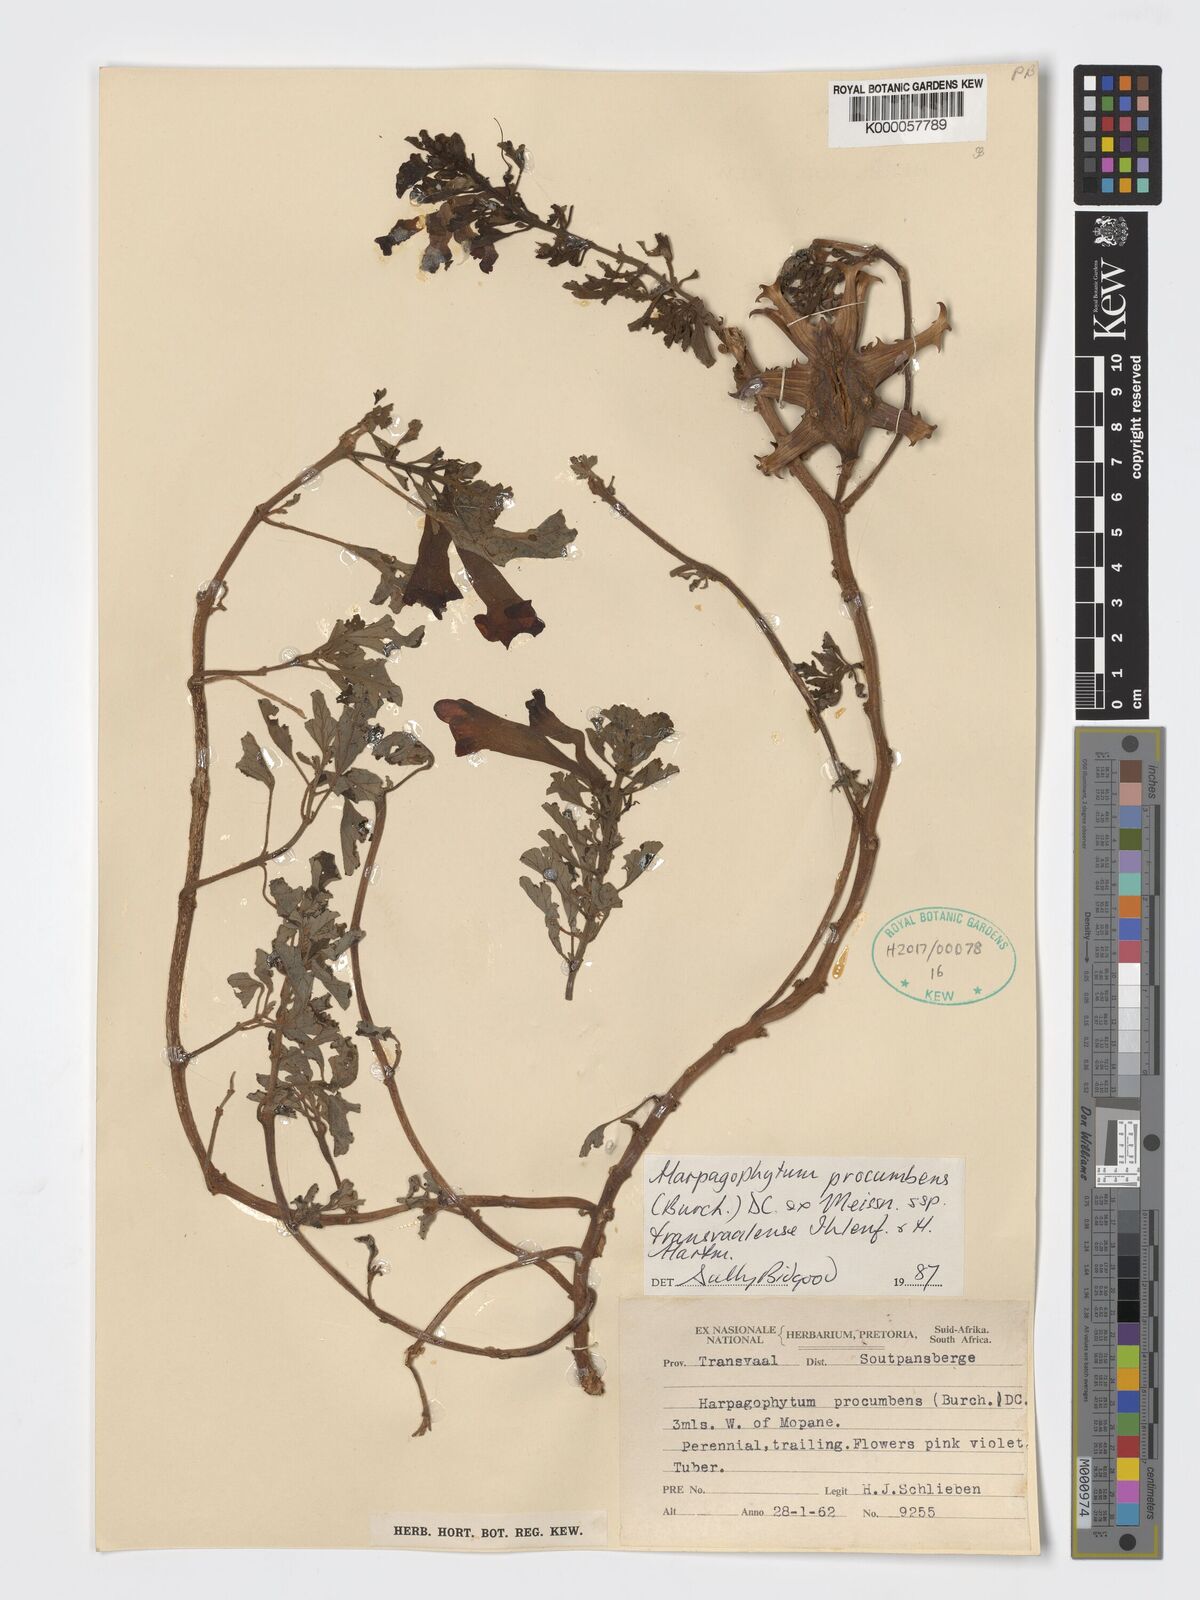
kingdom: Plantae
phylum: Tracheophyta
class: Magnoliopsida
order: Lamiales
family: Pedaliaceae
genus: Harpagophytum
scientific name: Harpagophytum procumbens
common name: Grappleplant
